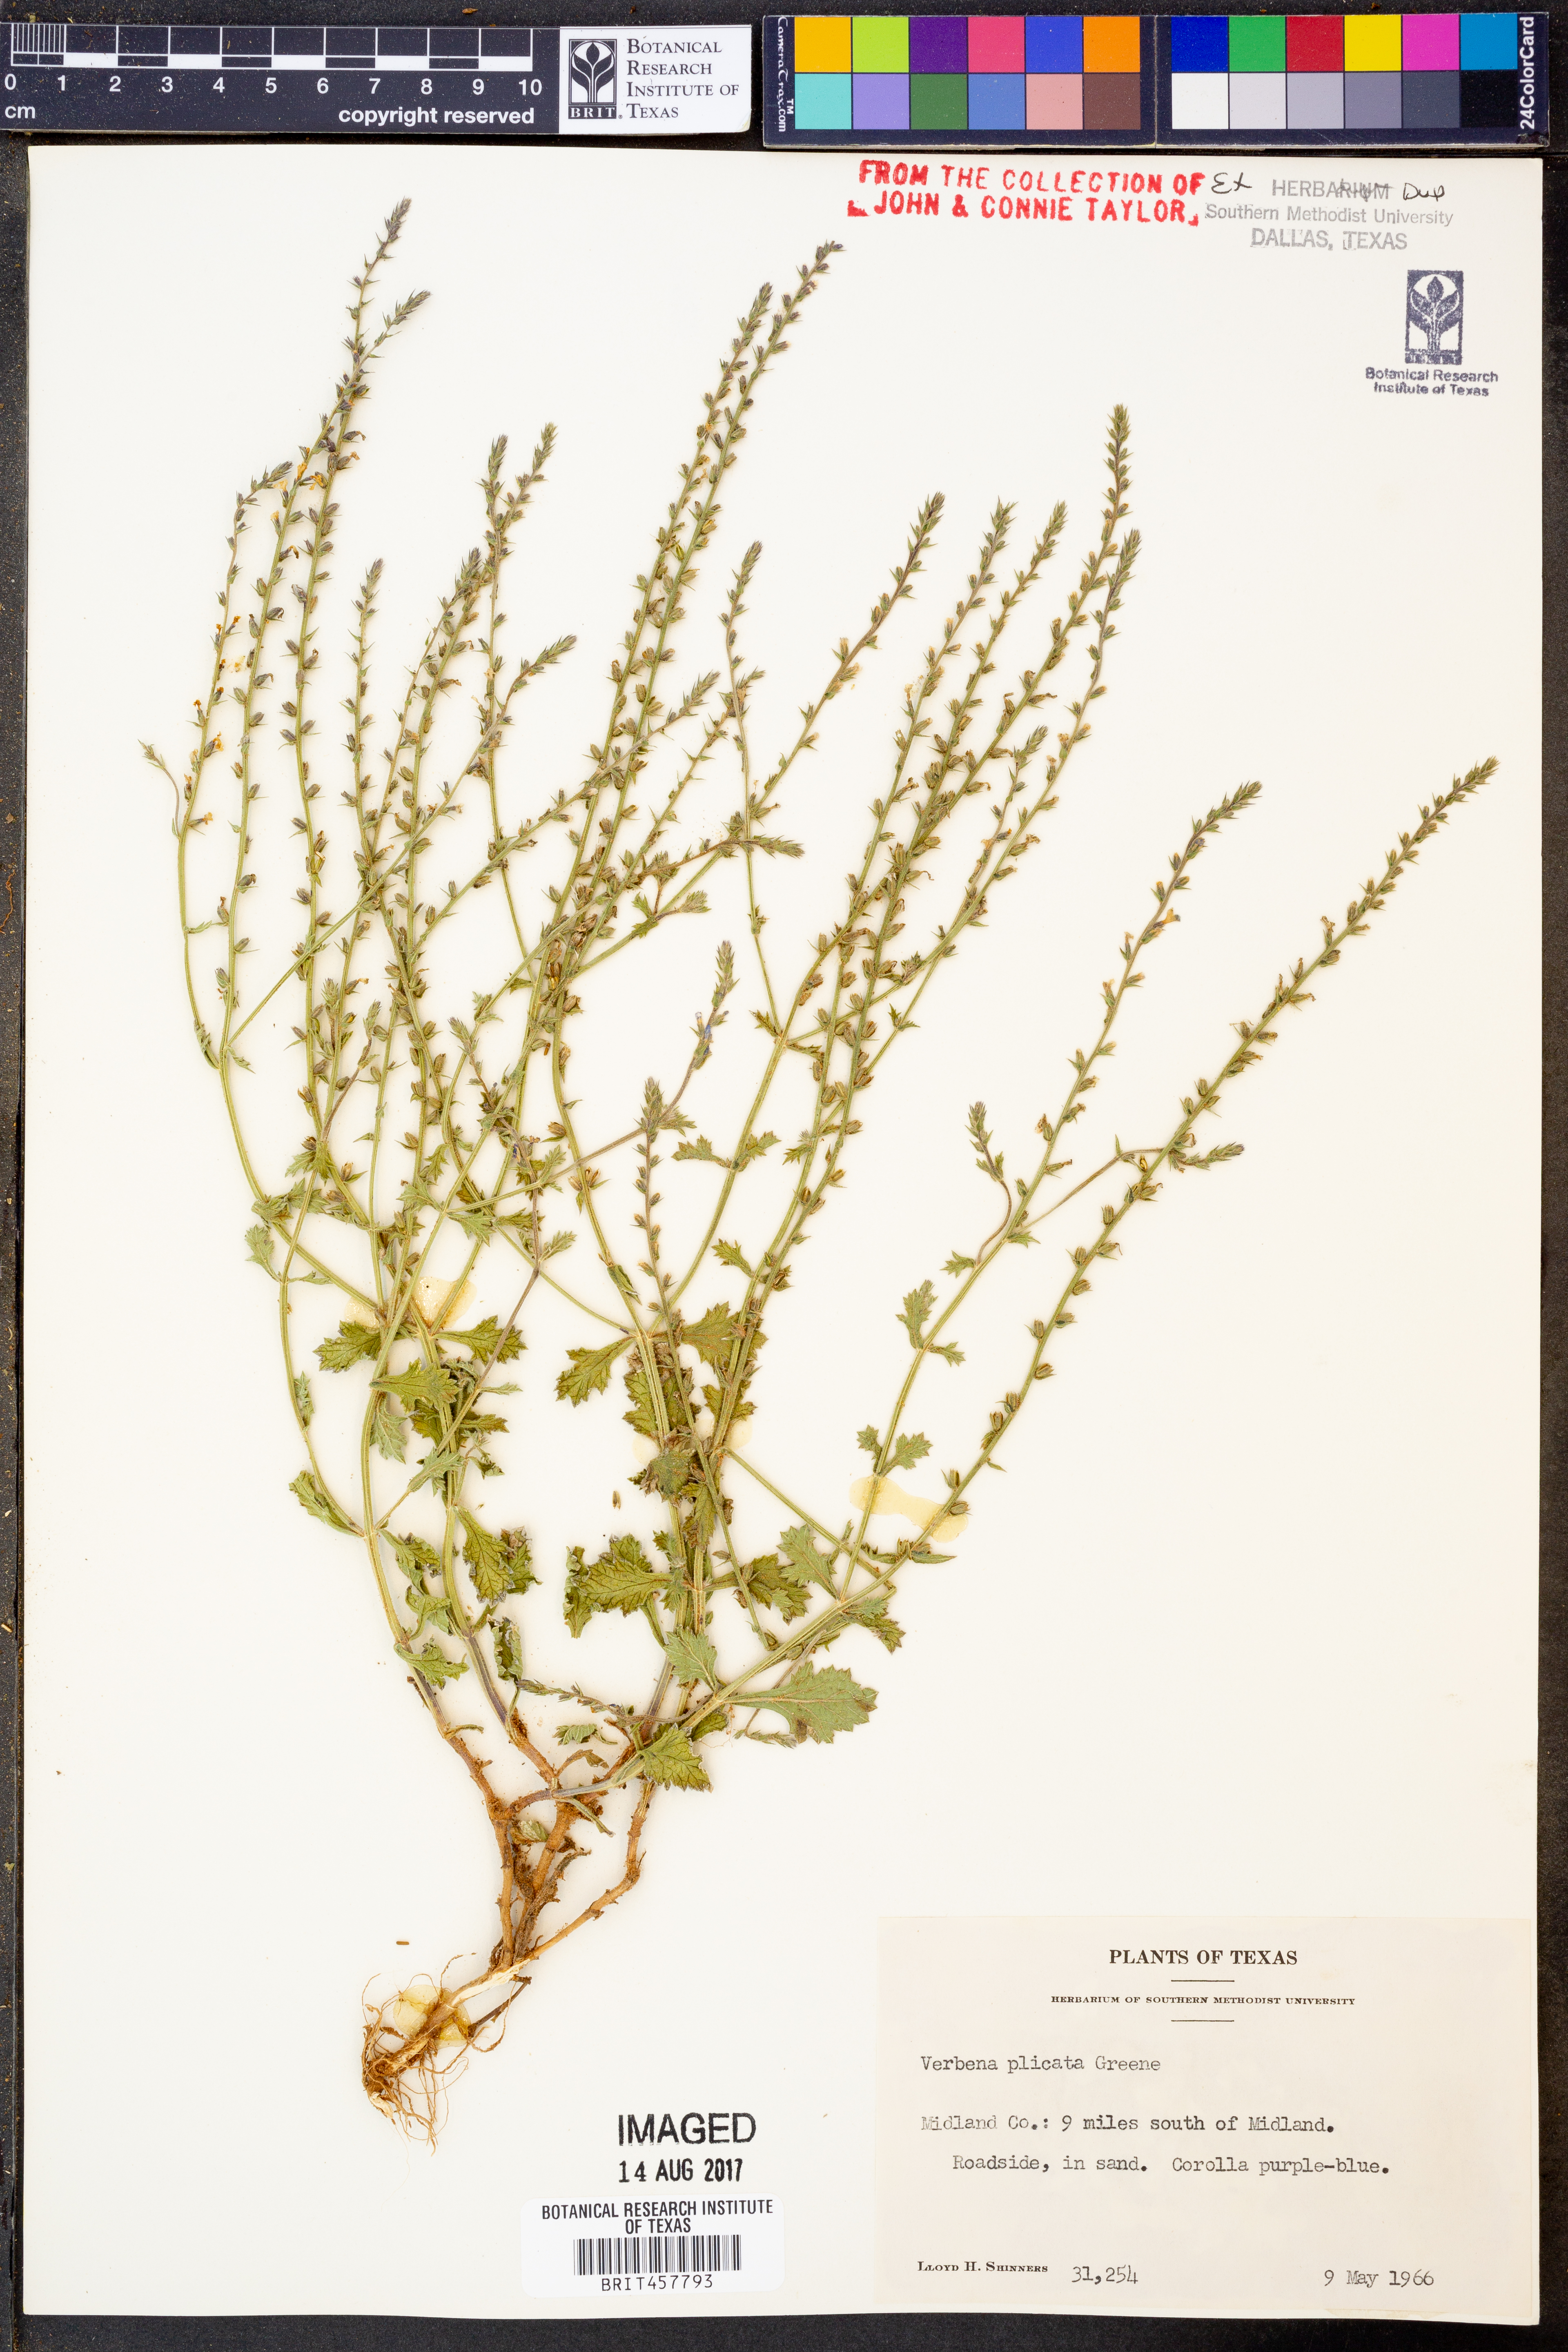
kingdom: Plantae
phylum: Tracheophyta
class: Magnoliopsida
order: Lamiales
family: Verbenaceae
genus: Verbena
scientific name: Verbena plicata
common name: Fan-leaf vervain
